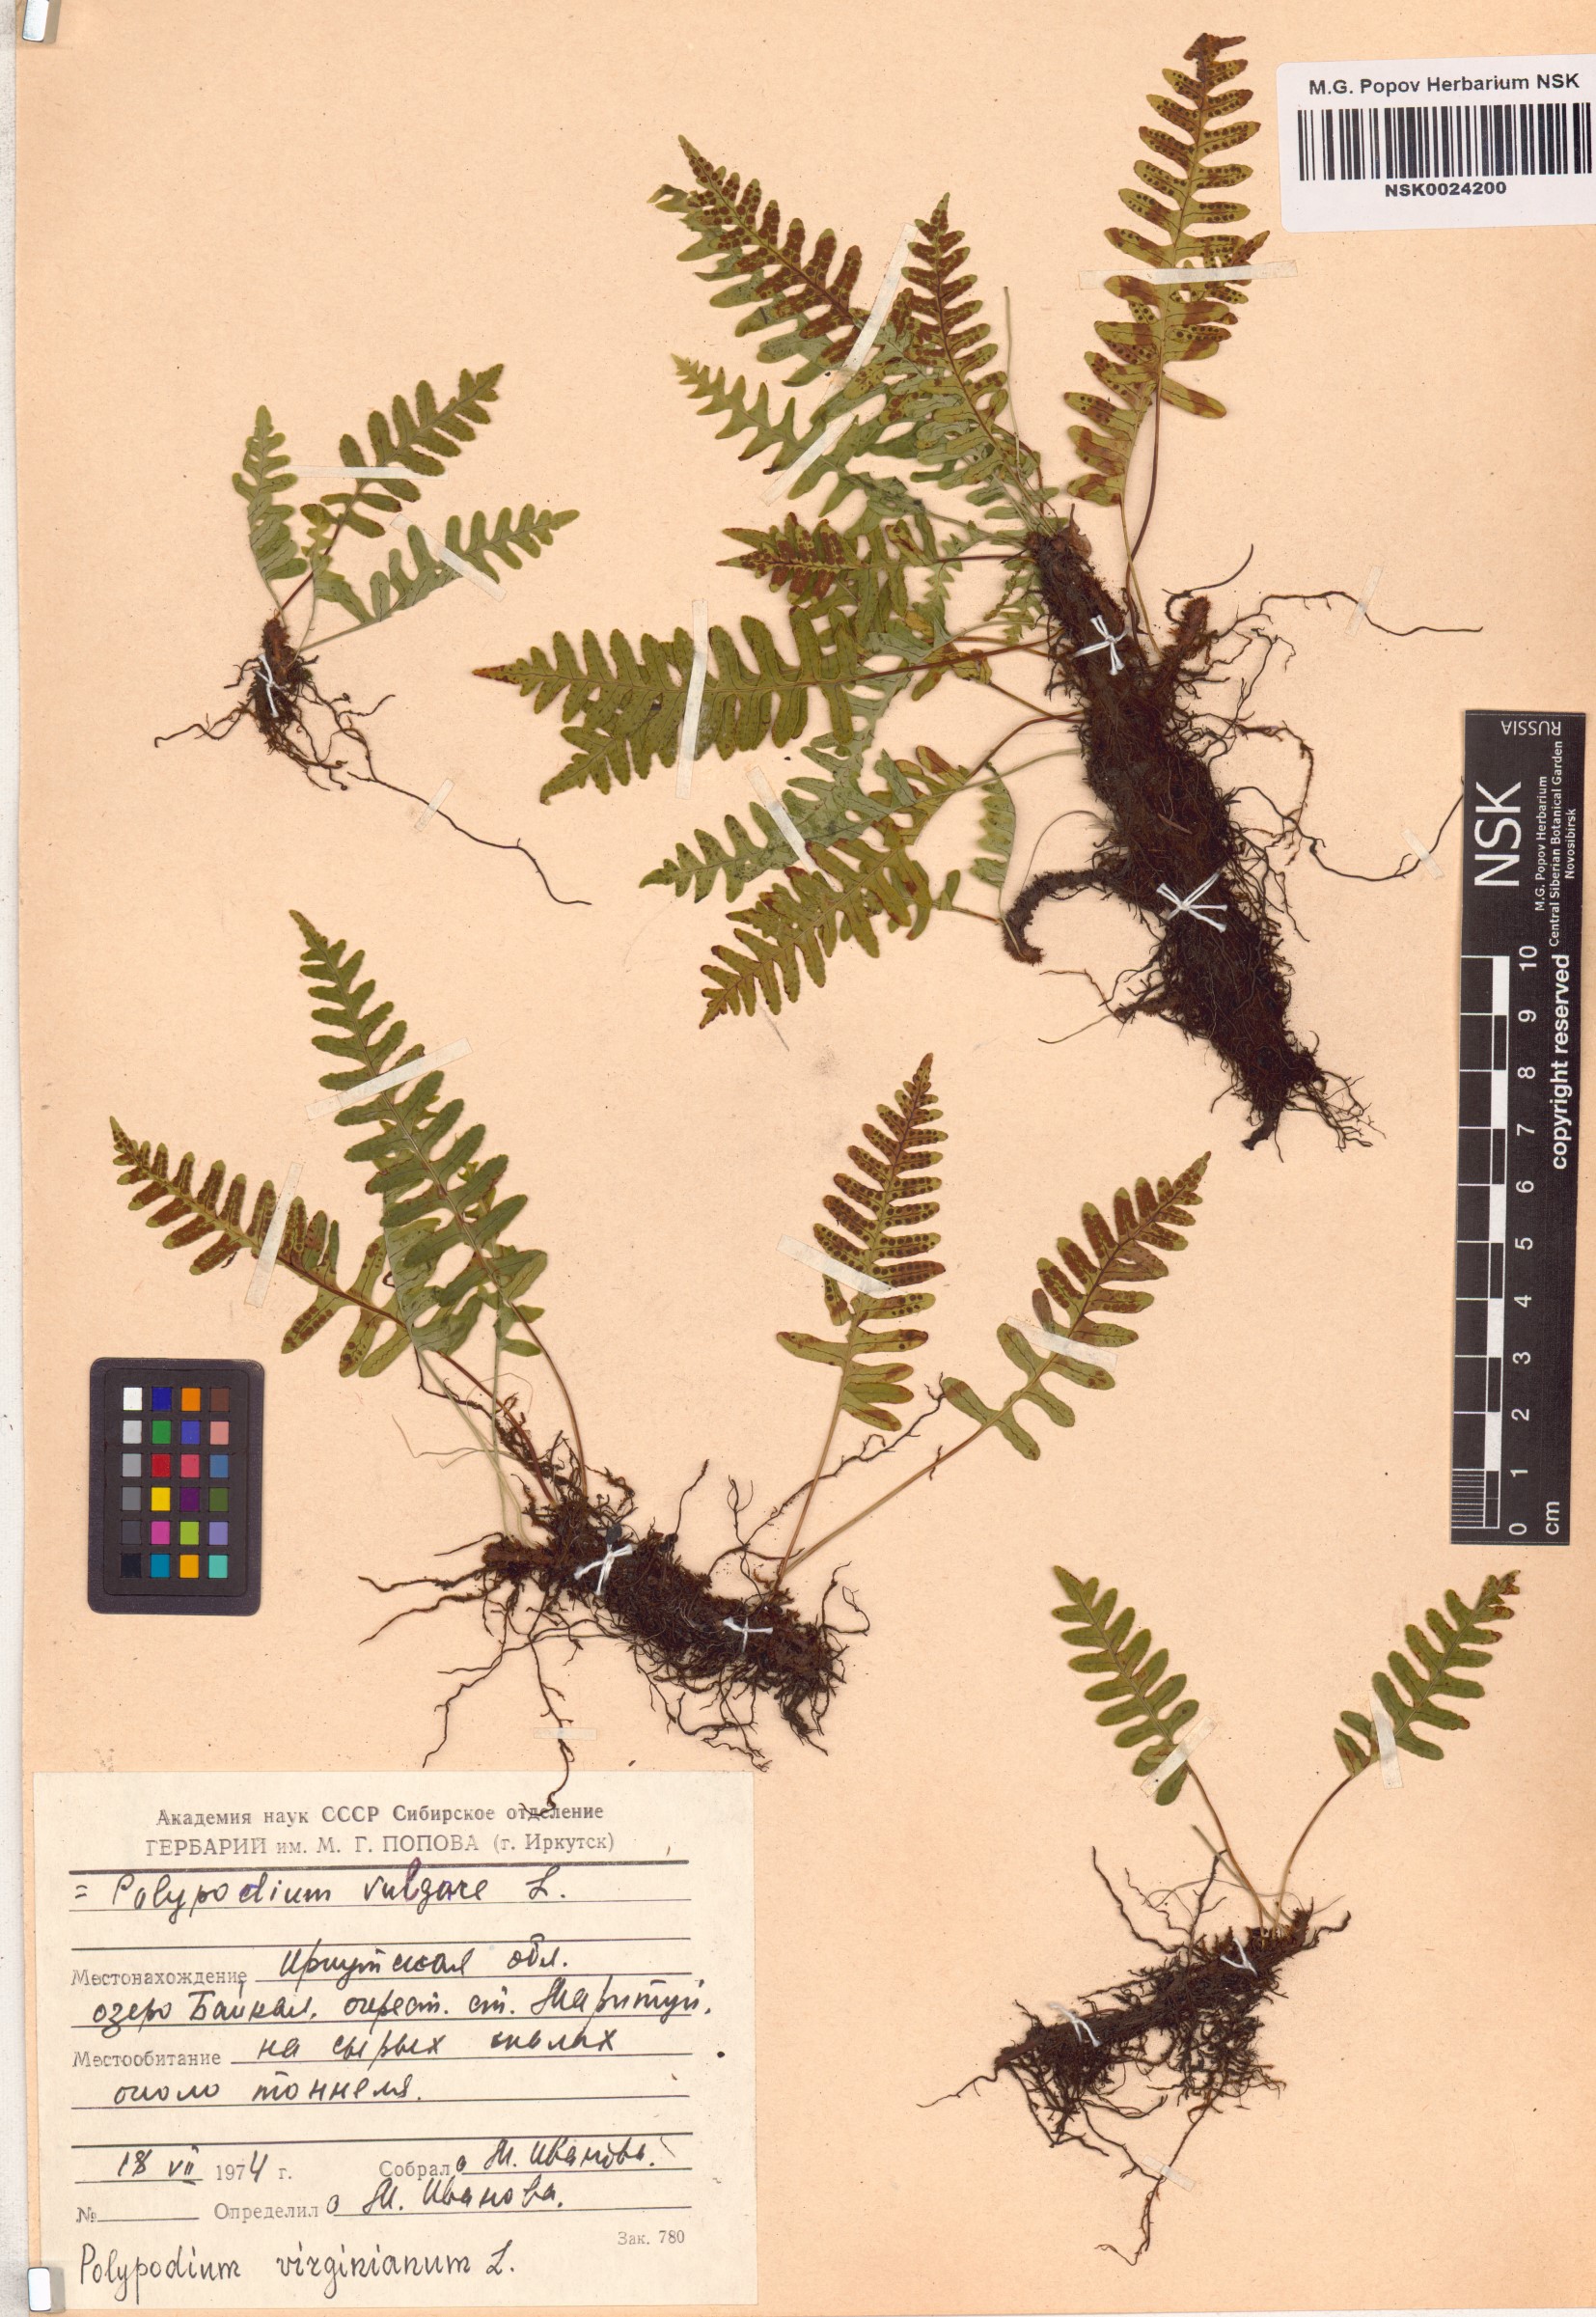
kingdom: Plantae
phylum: Tracheophyta
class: Polypodiopsida
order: Polypodiales
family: Polypodiaceae
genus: Polypodium
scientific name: Polypodium virginianum
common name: American wall fern
